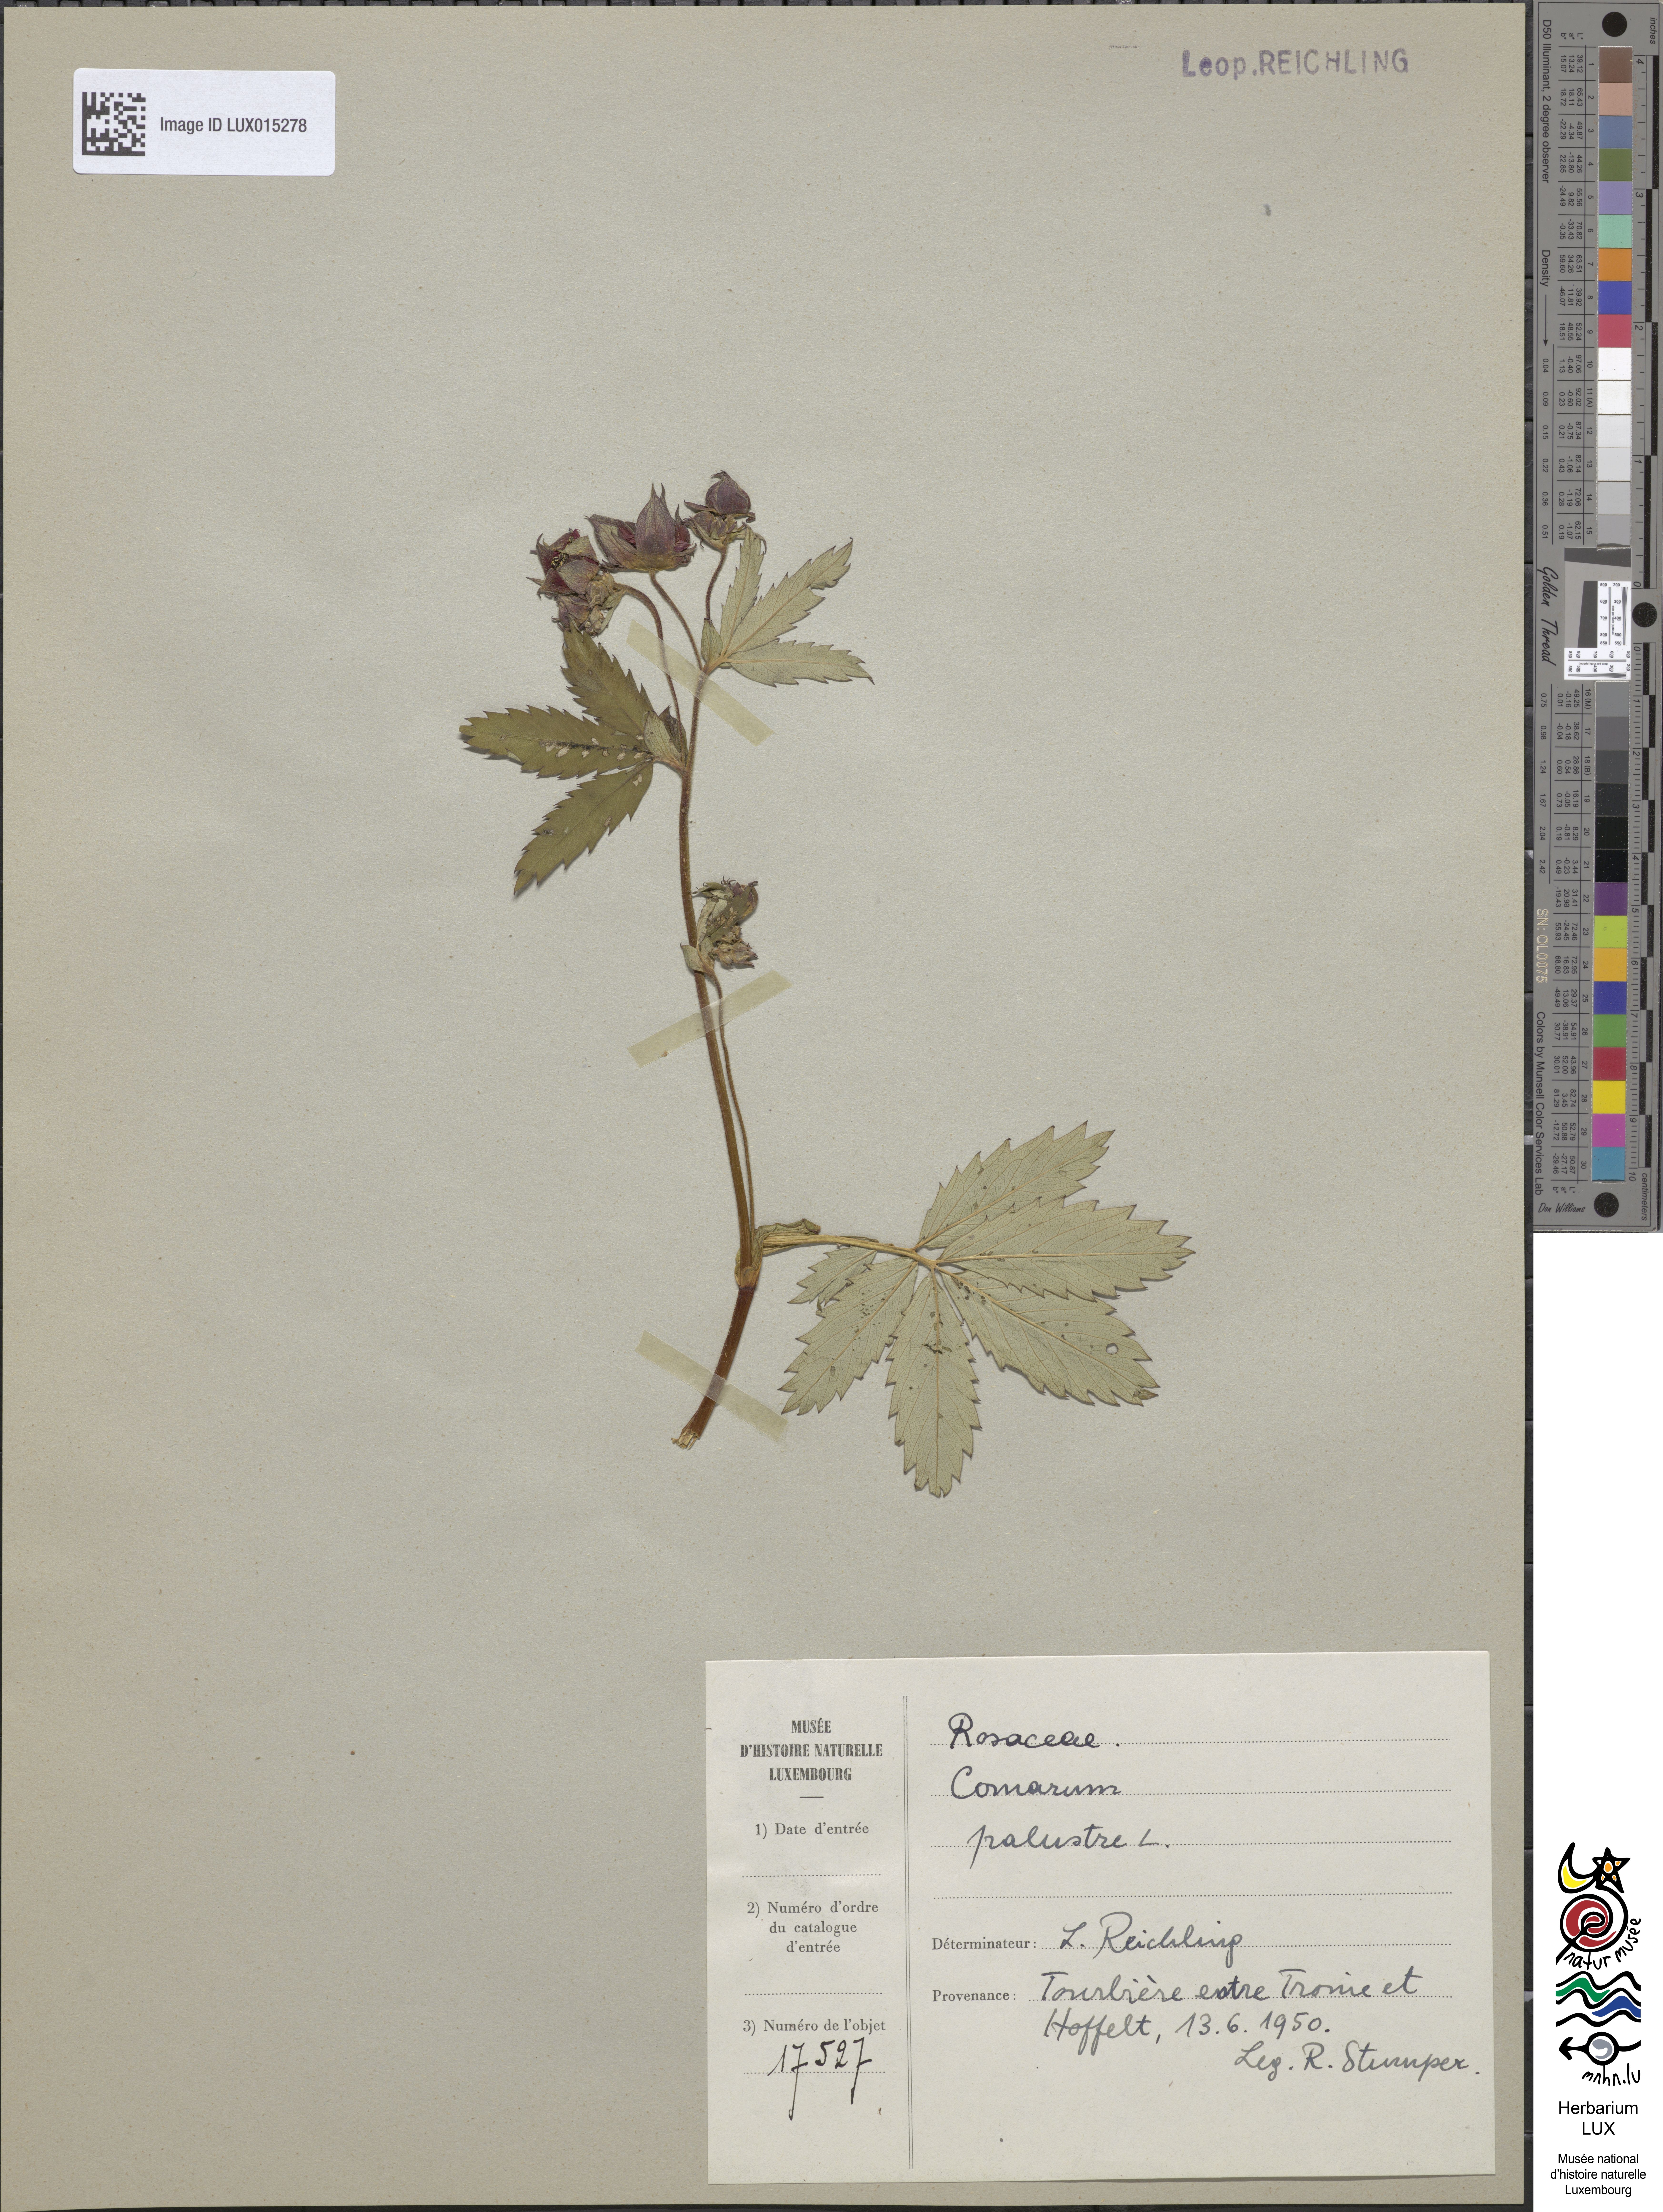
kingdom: Plantae
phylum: Tracheophyta
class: Magnoliopsida
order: Rosales
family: Rosaceae
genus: Comarum
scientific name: Comarum palustre
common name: Marsh cinquefoil
